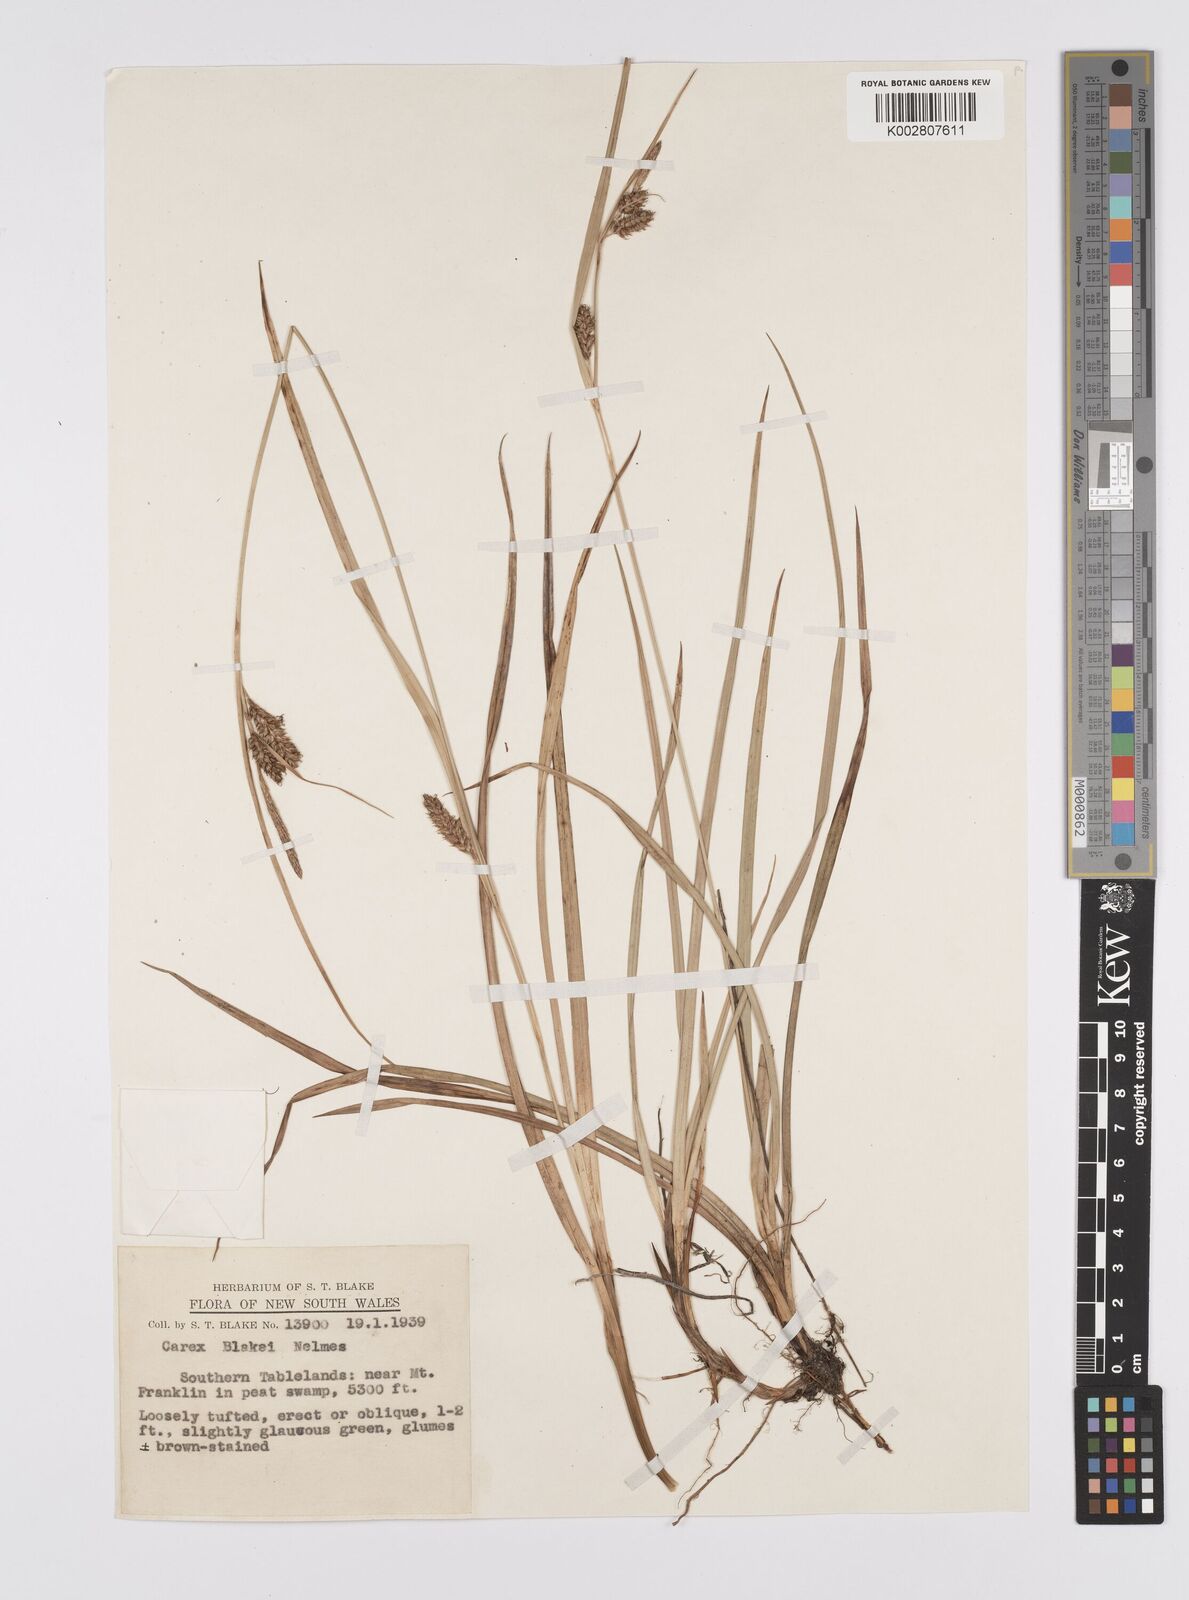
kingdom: Plantae
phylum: Tracheophyta
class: Liliopsida
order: Poales
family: Cyperaceae
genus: Carex
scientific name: Carex blakei
